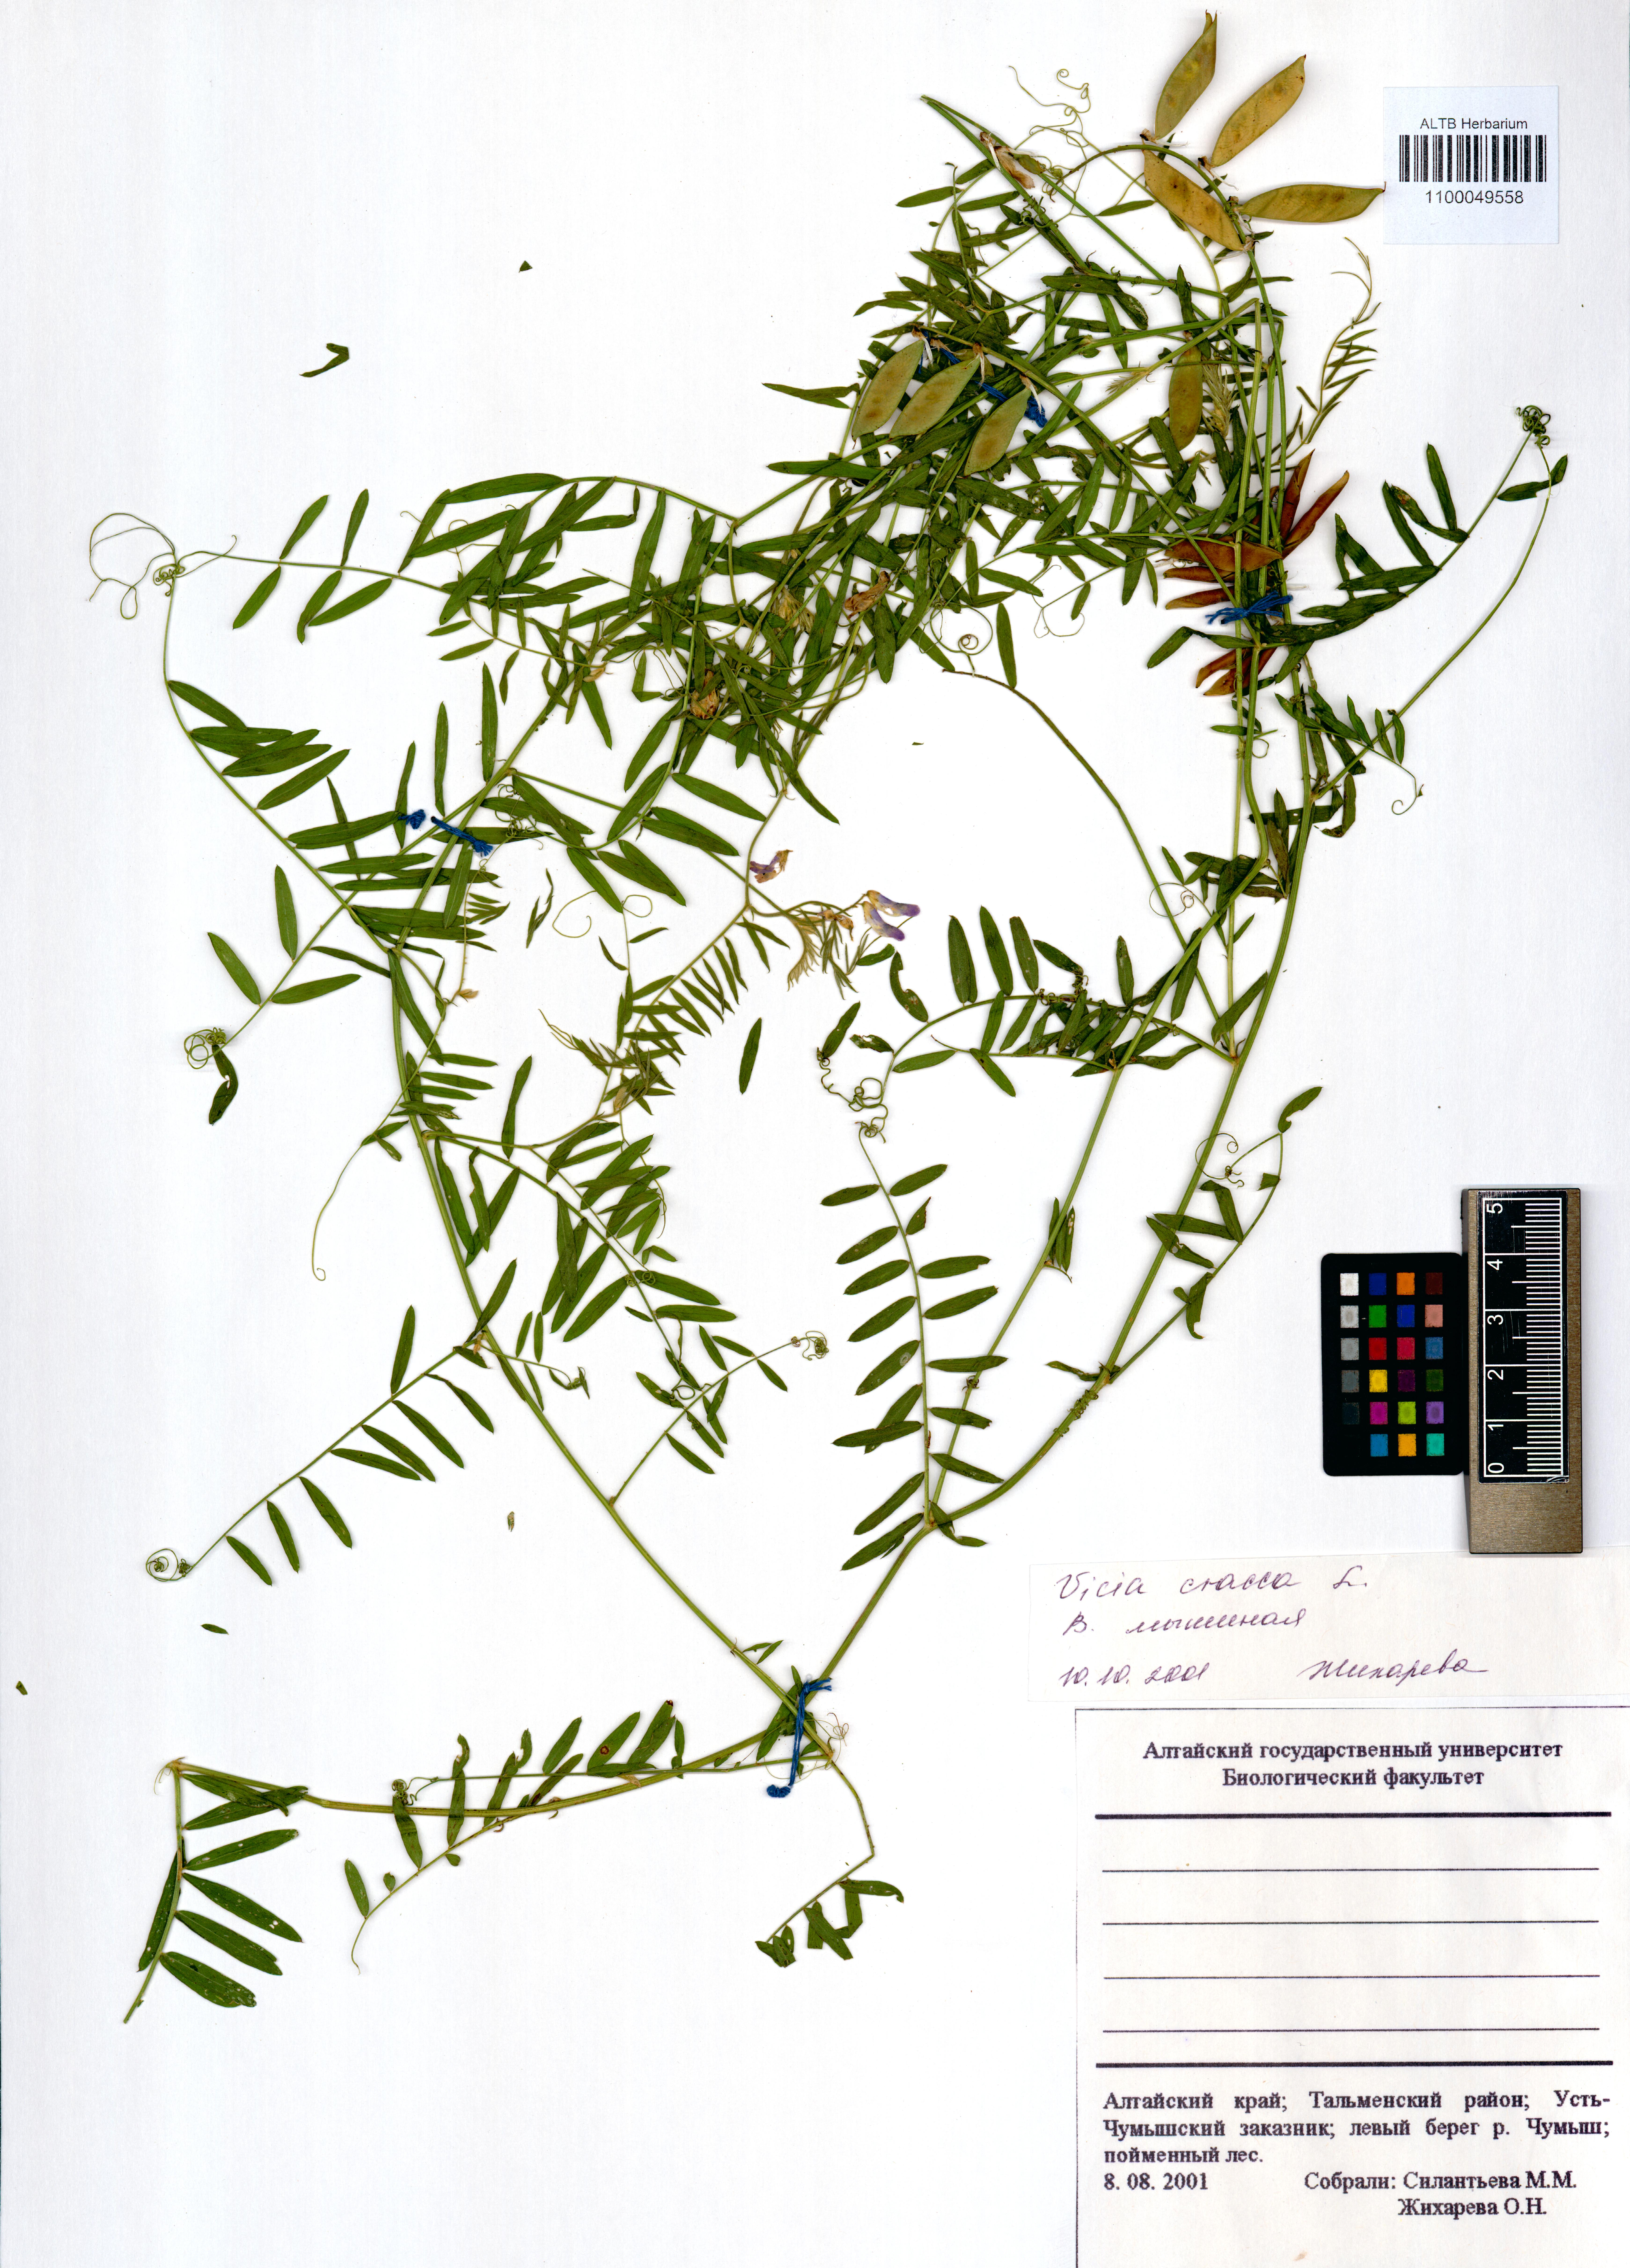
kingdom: Plantae
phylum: Tracheophyta
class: Magnoliopsida
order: Fabales
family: Fabaceae
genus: Vicia
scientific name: Vicia cracca
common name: Bird vetch
